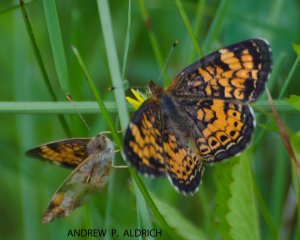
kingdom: Animalia
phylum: Arthropoda
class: Insecta
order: Lepidoptera
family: Nymphalidae
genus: Phyciodes
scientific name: Phyciodes tharos
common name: Pearl Crescent
